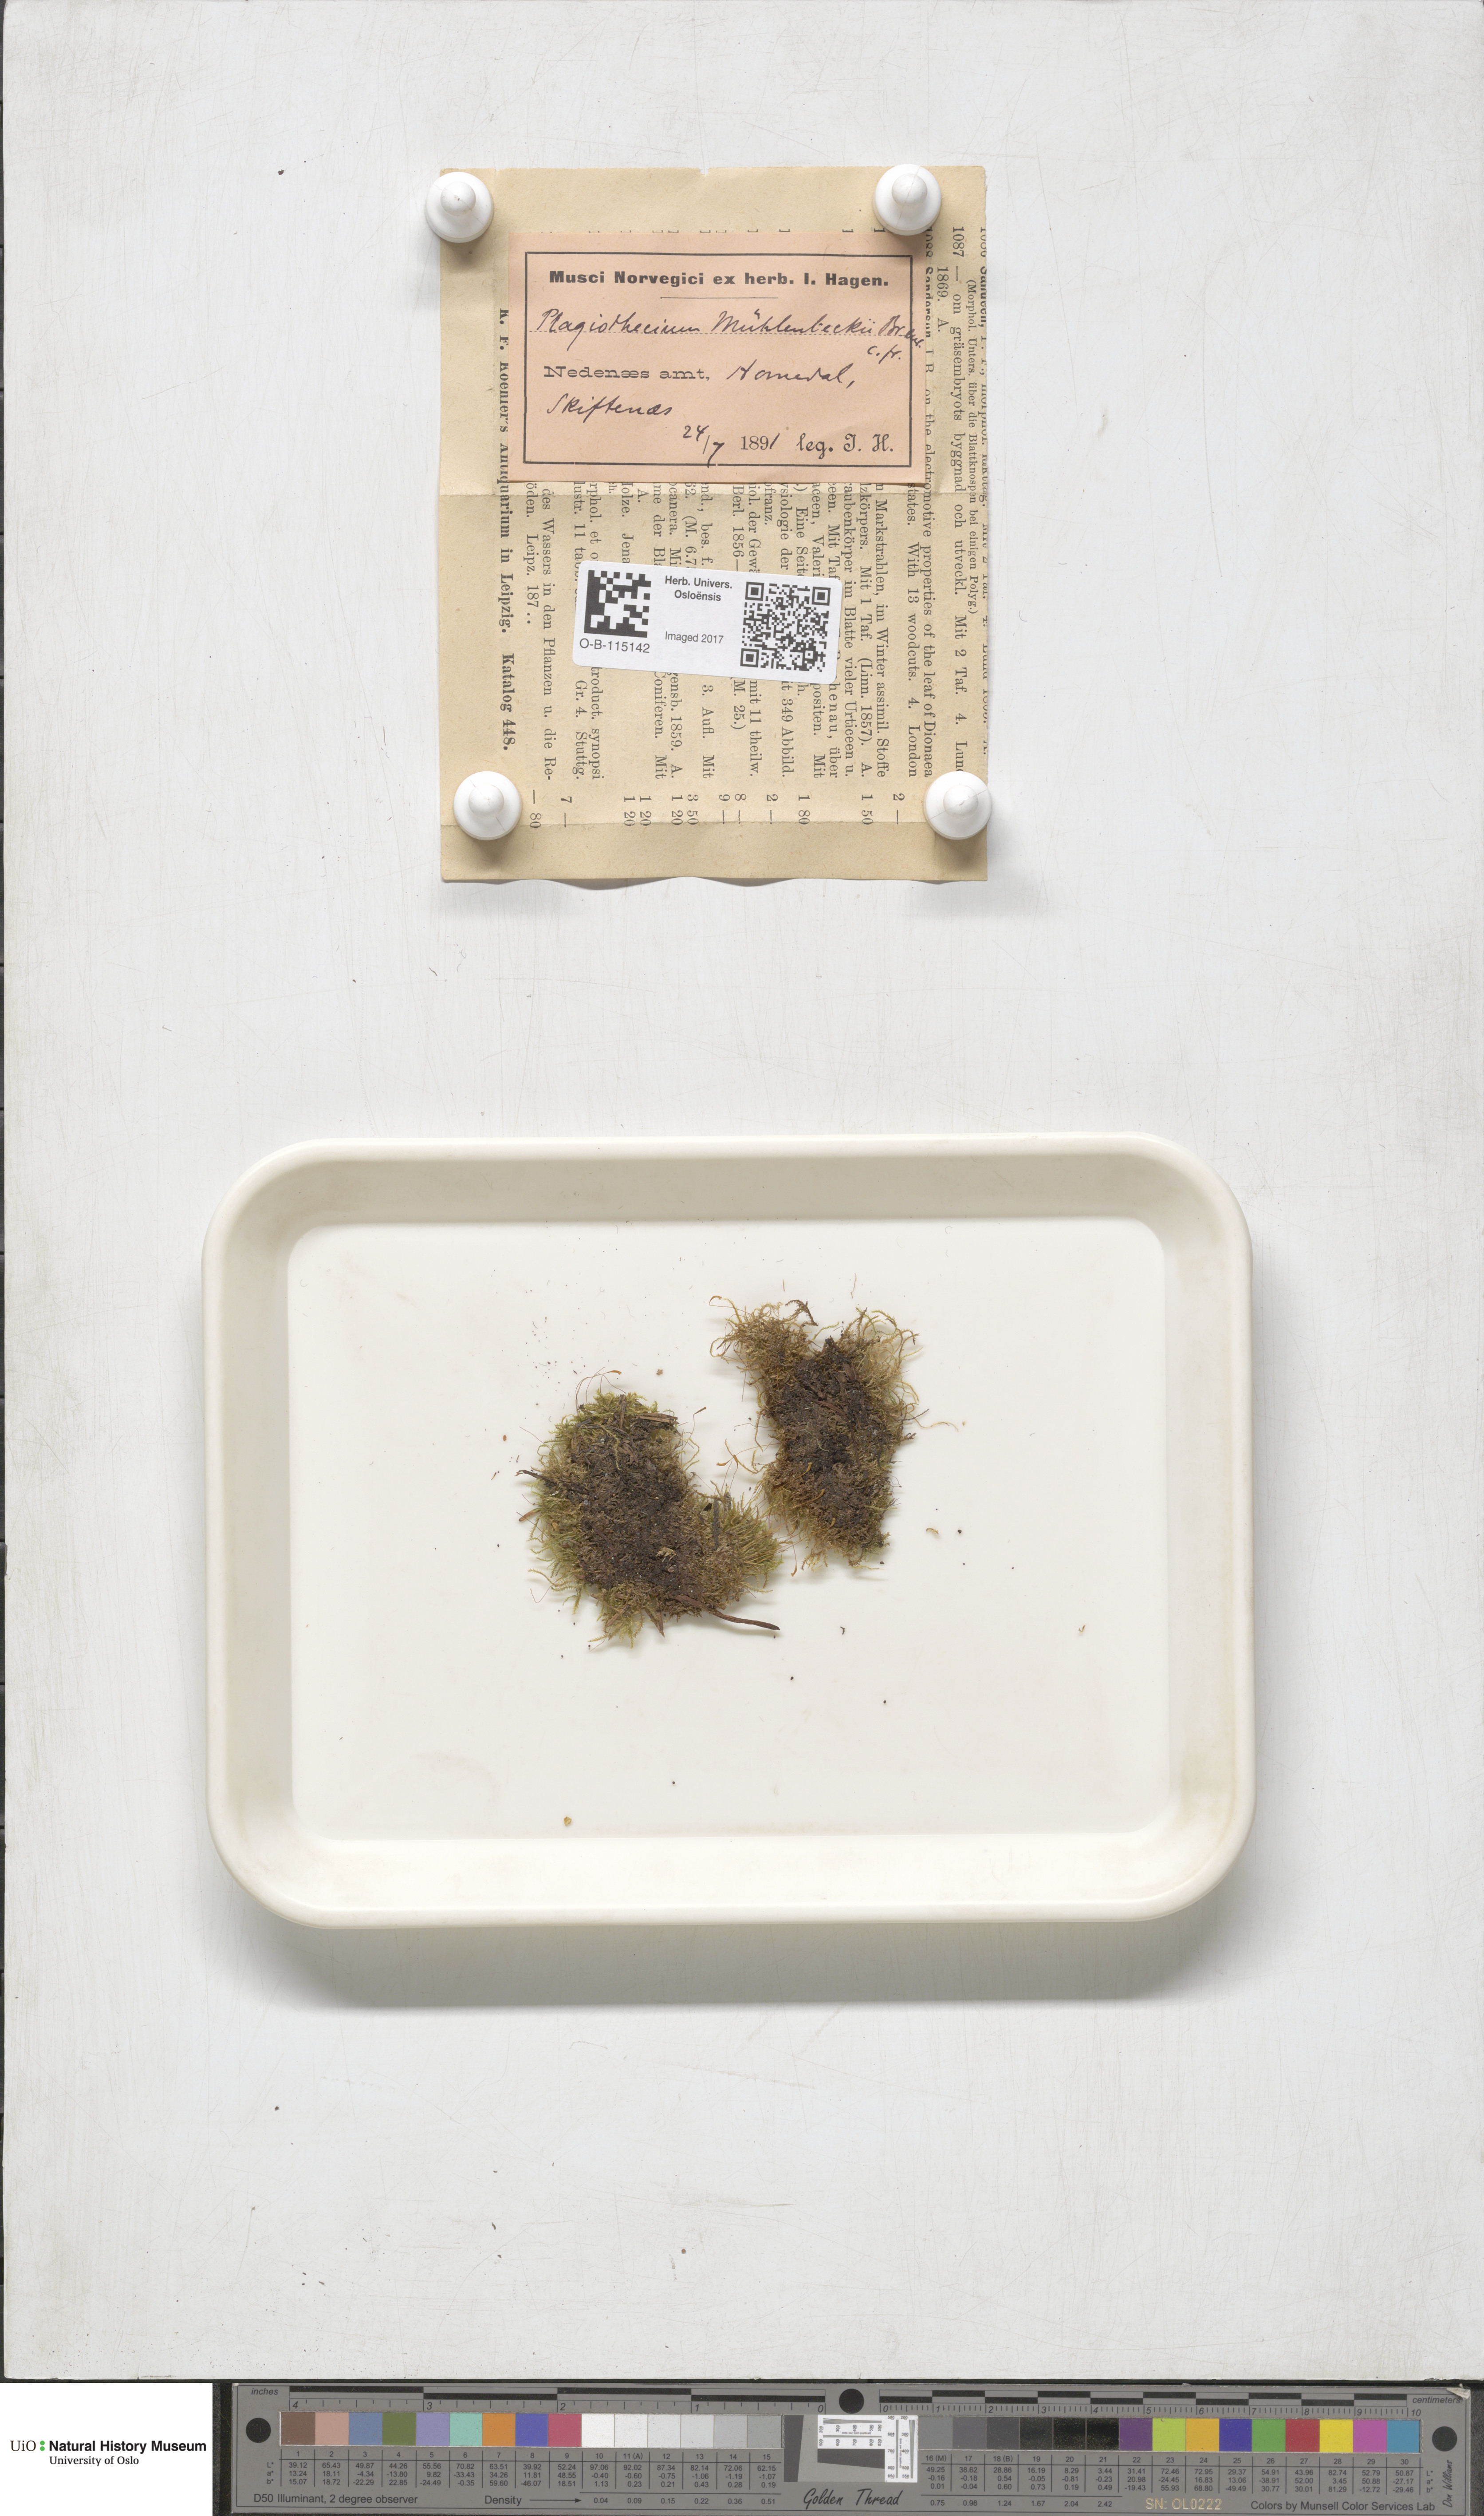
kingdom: Plantae
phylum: Bryophyta
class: Bryopsida
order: Hypnales
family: Plagiotheciaceae
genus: Herzogiella
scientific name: Herzogiella striatella
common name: Muhlenbeck's feather-moss
